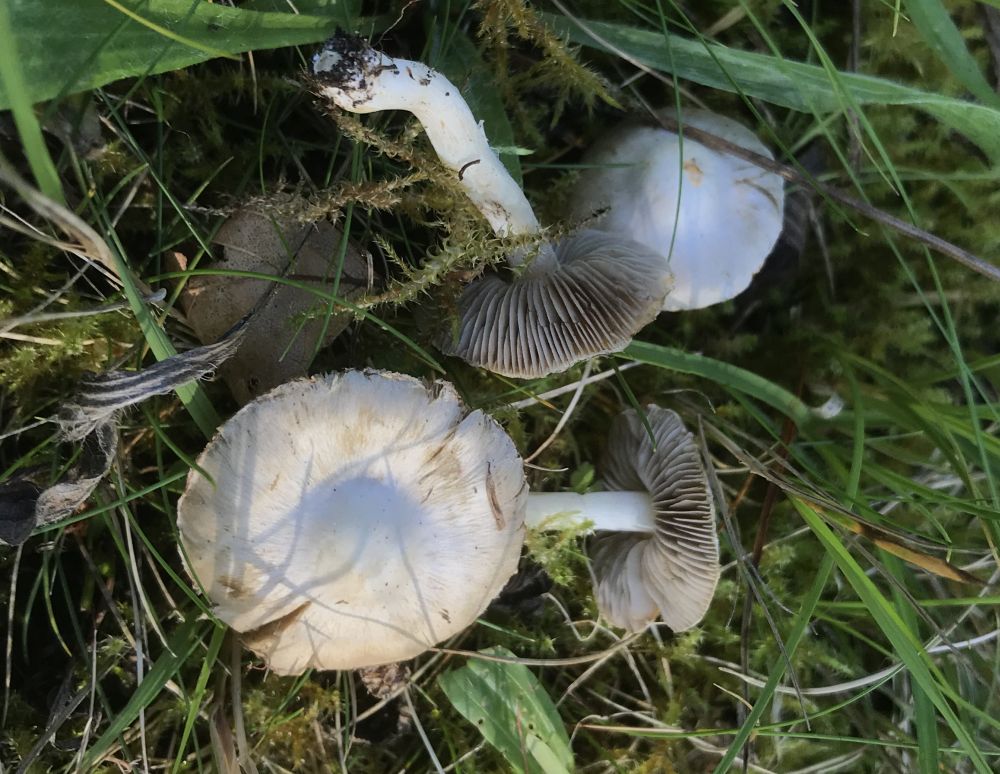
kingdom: Fungi
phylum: Basidiomycota
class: Agaricomycetes
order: Agaricales
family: Inocybaceae
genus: Inocybe
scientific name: Inocybe
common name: almindelig trævlhat
